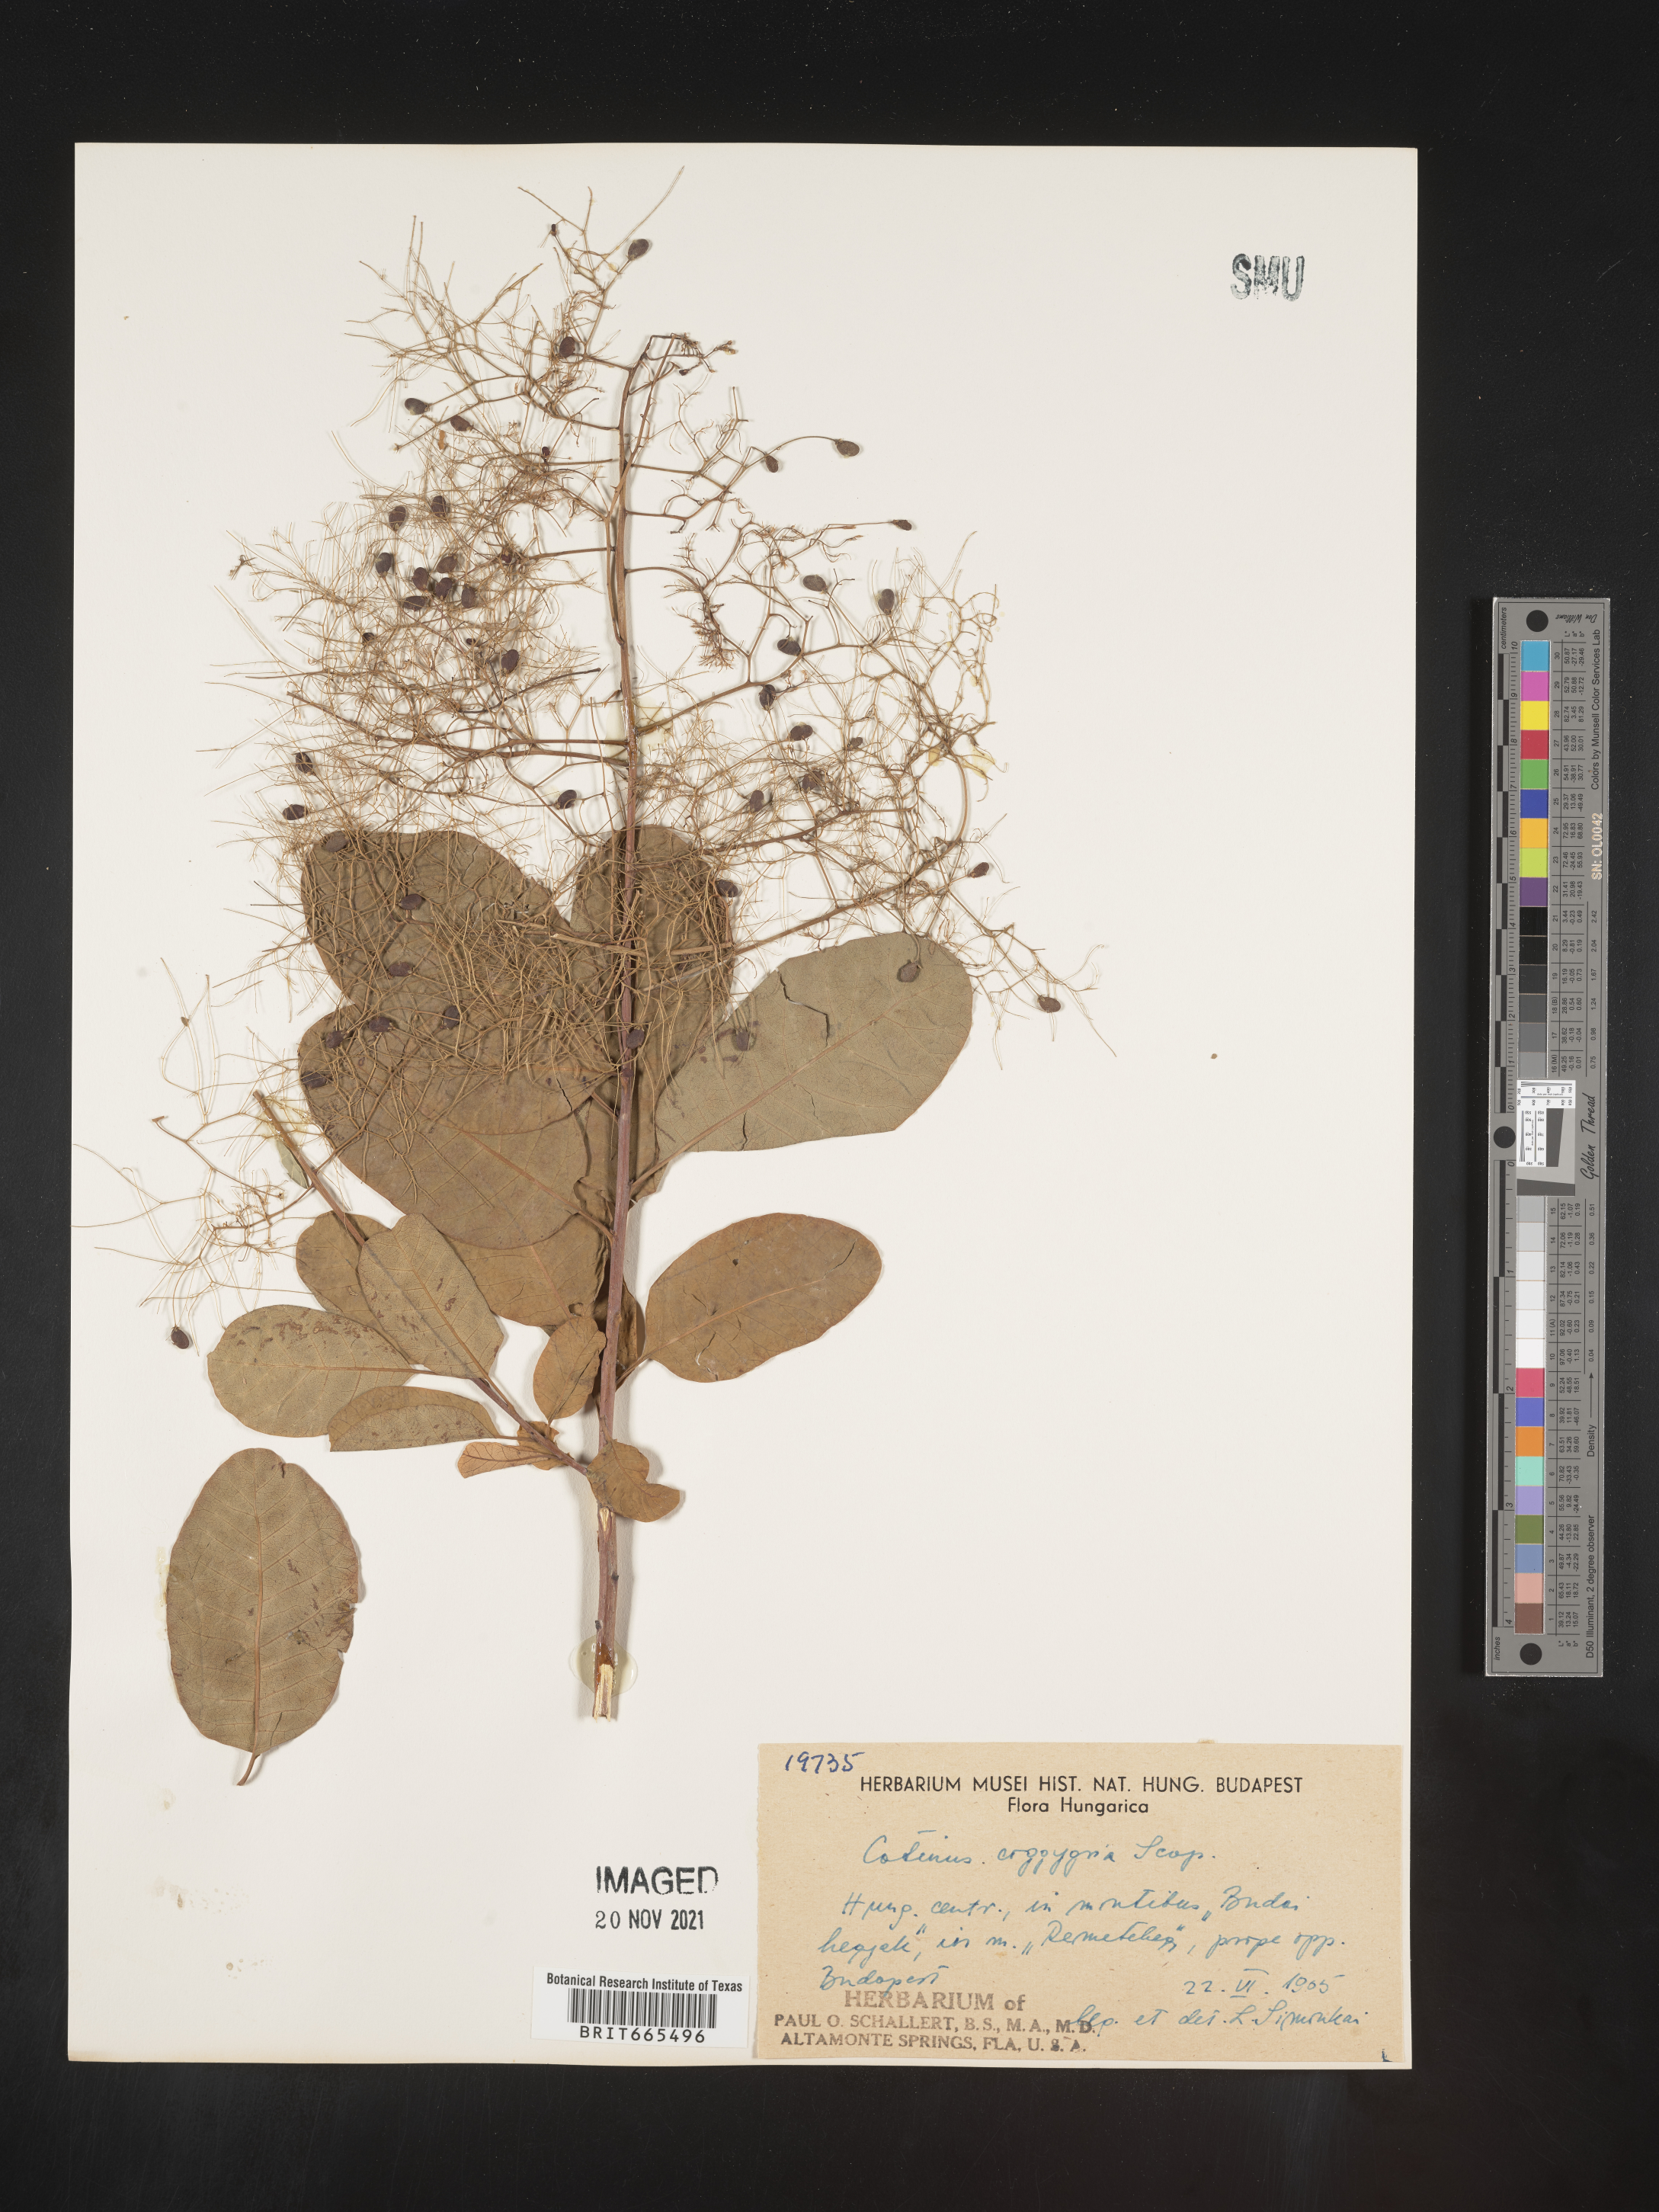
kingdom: Plantae
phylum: Tracheophyta
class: Magnoliopsida
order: Sapindales
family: Anacardiaceae
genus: Cotinus
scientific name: Cotinus
